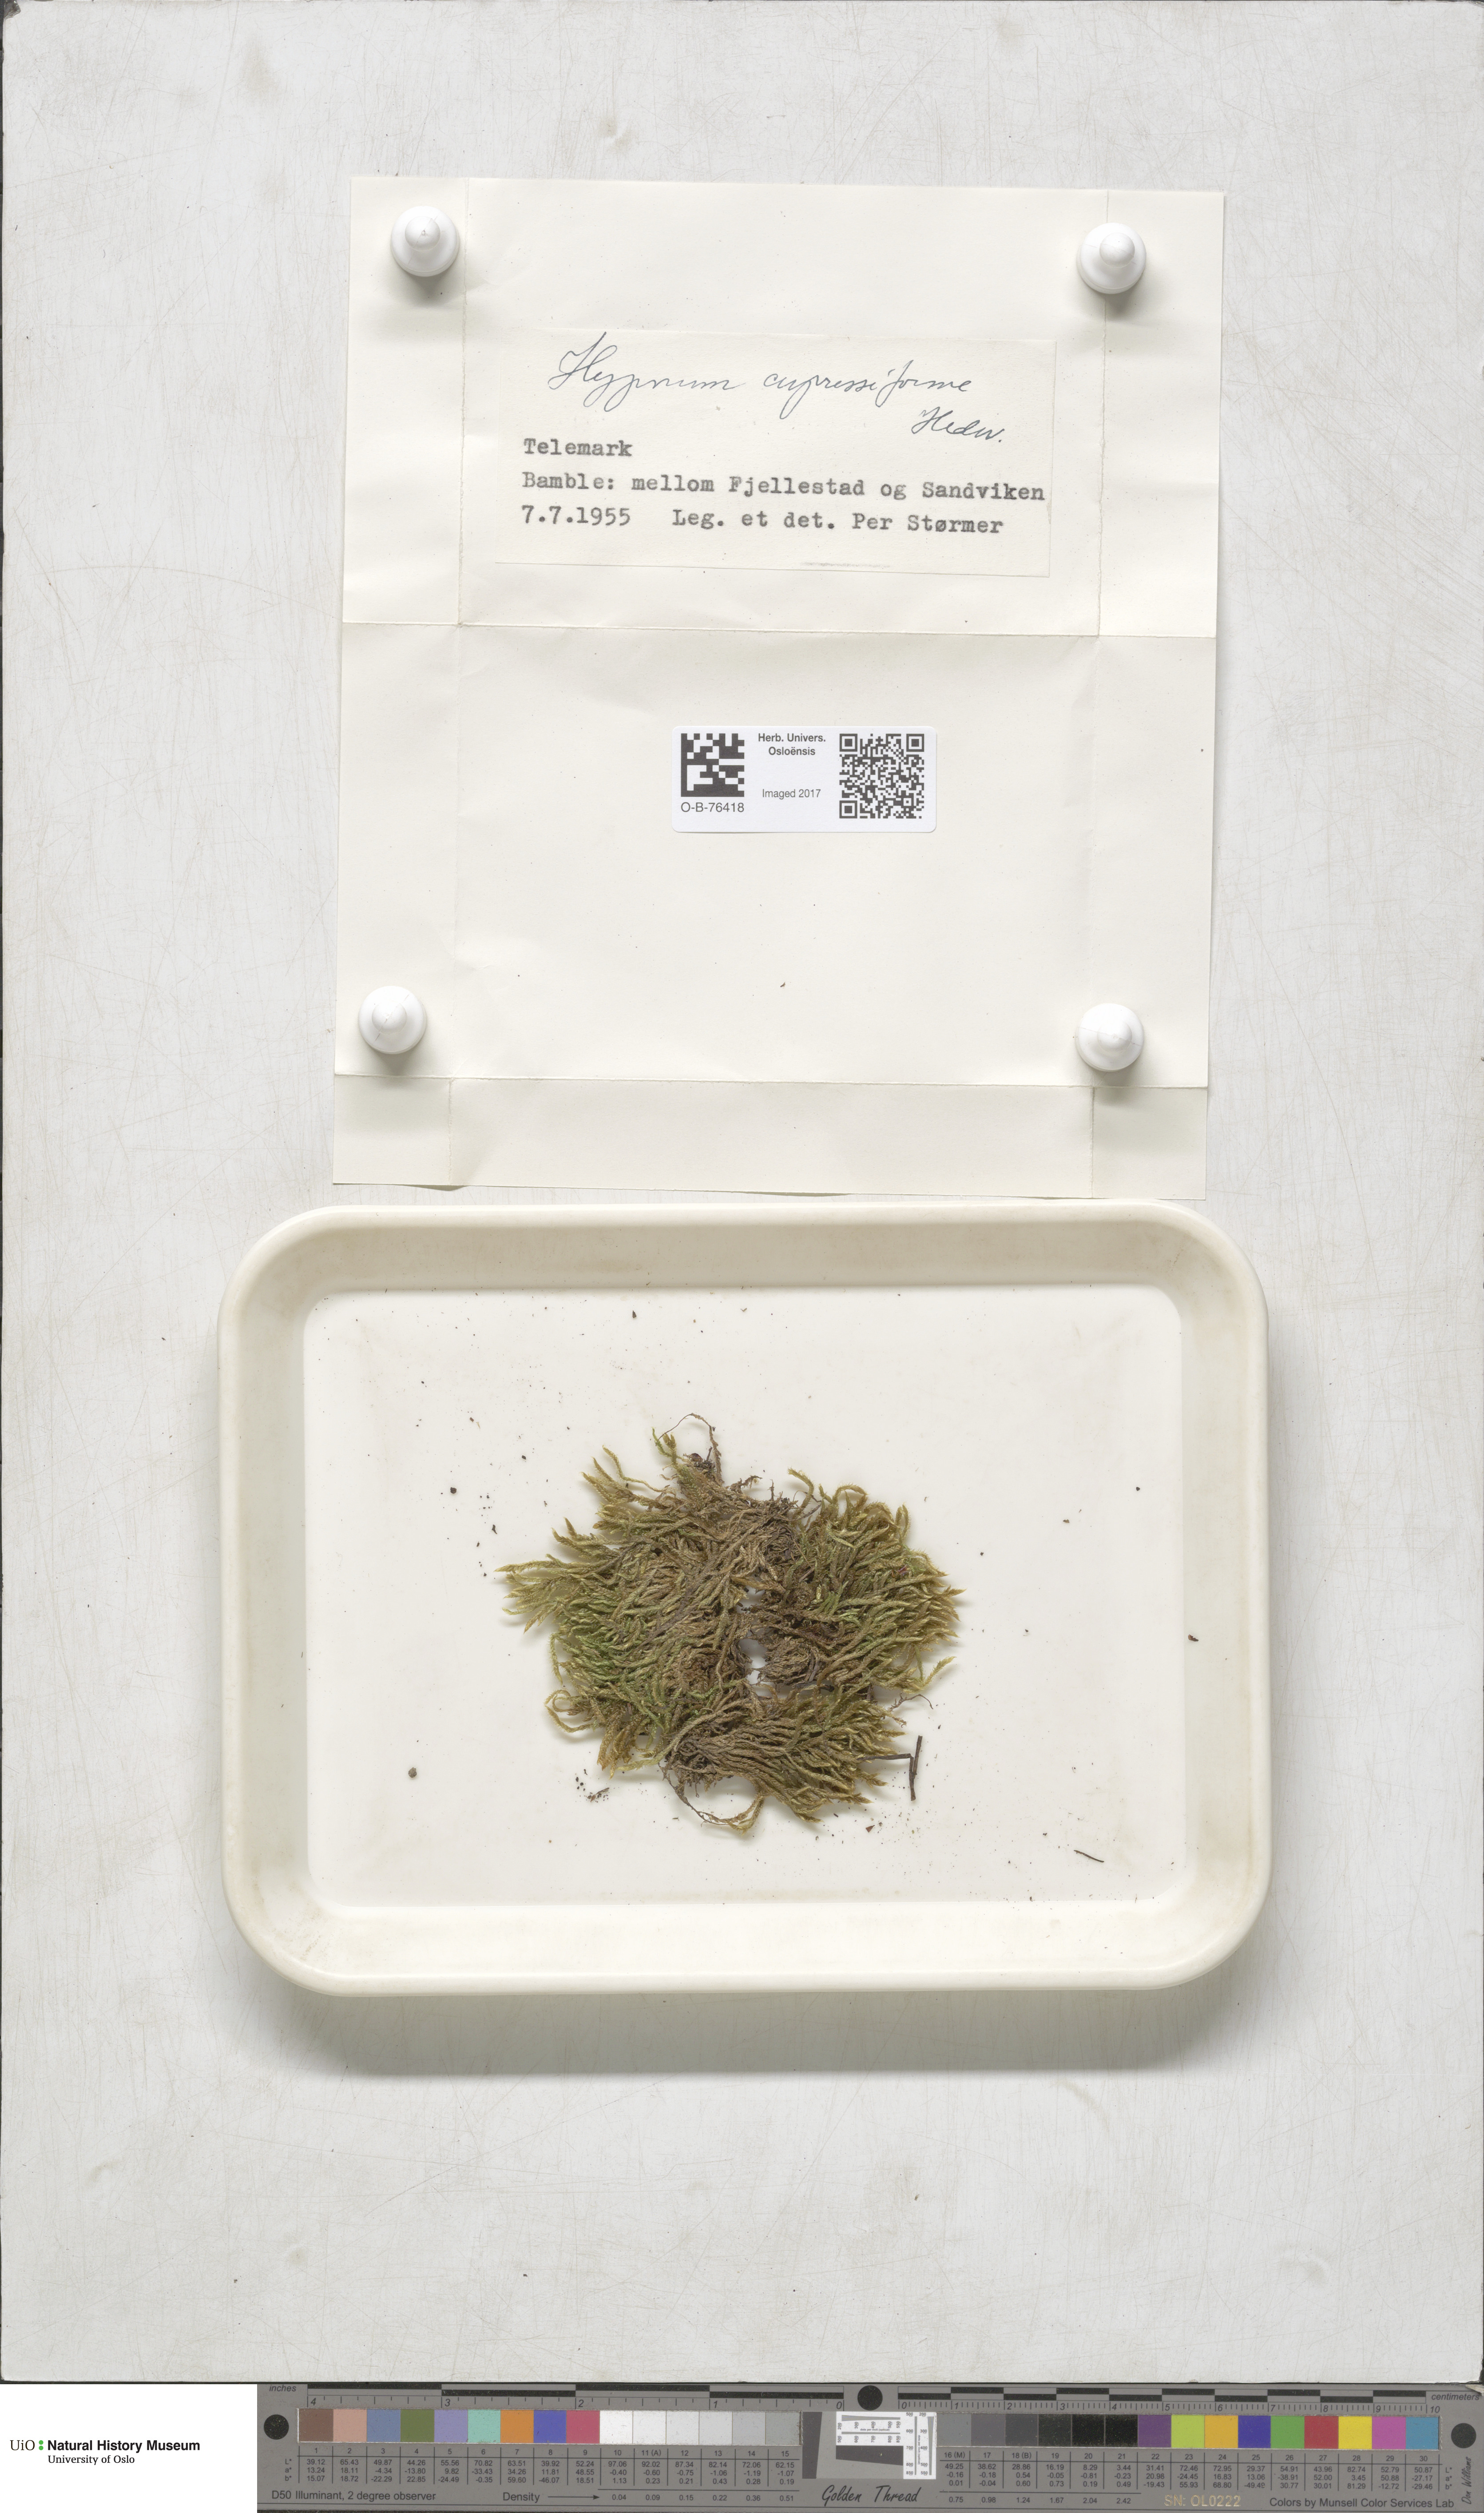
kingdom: Plantae
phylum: Bryophyta
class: Bryopsida
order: Hypnales
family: Hypnaceae
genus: Hypnum
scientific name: Hypnum cupressiforme
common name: Cypress-leaved plait-moss
